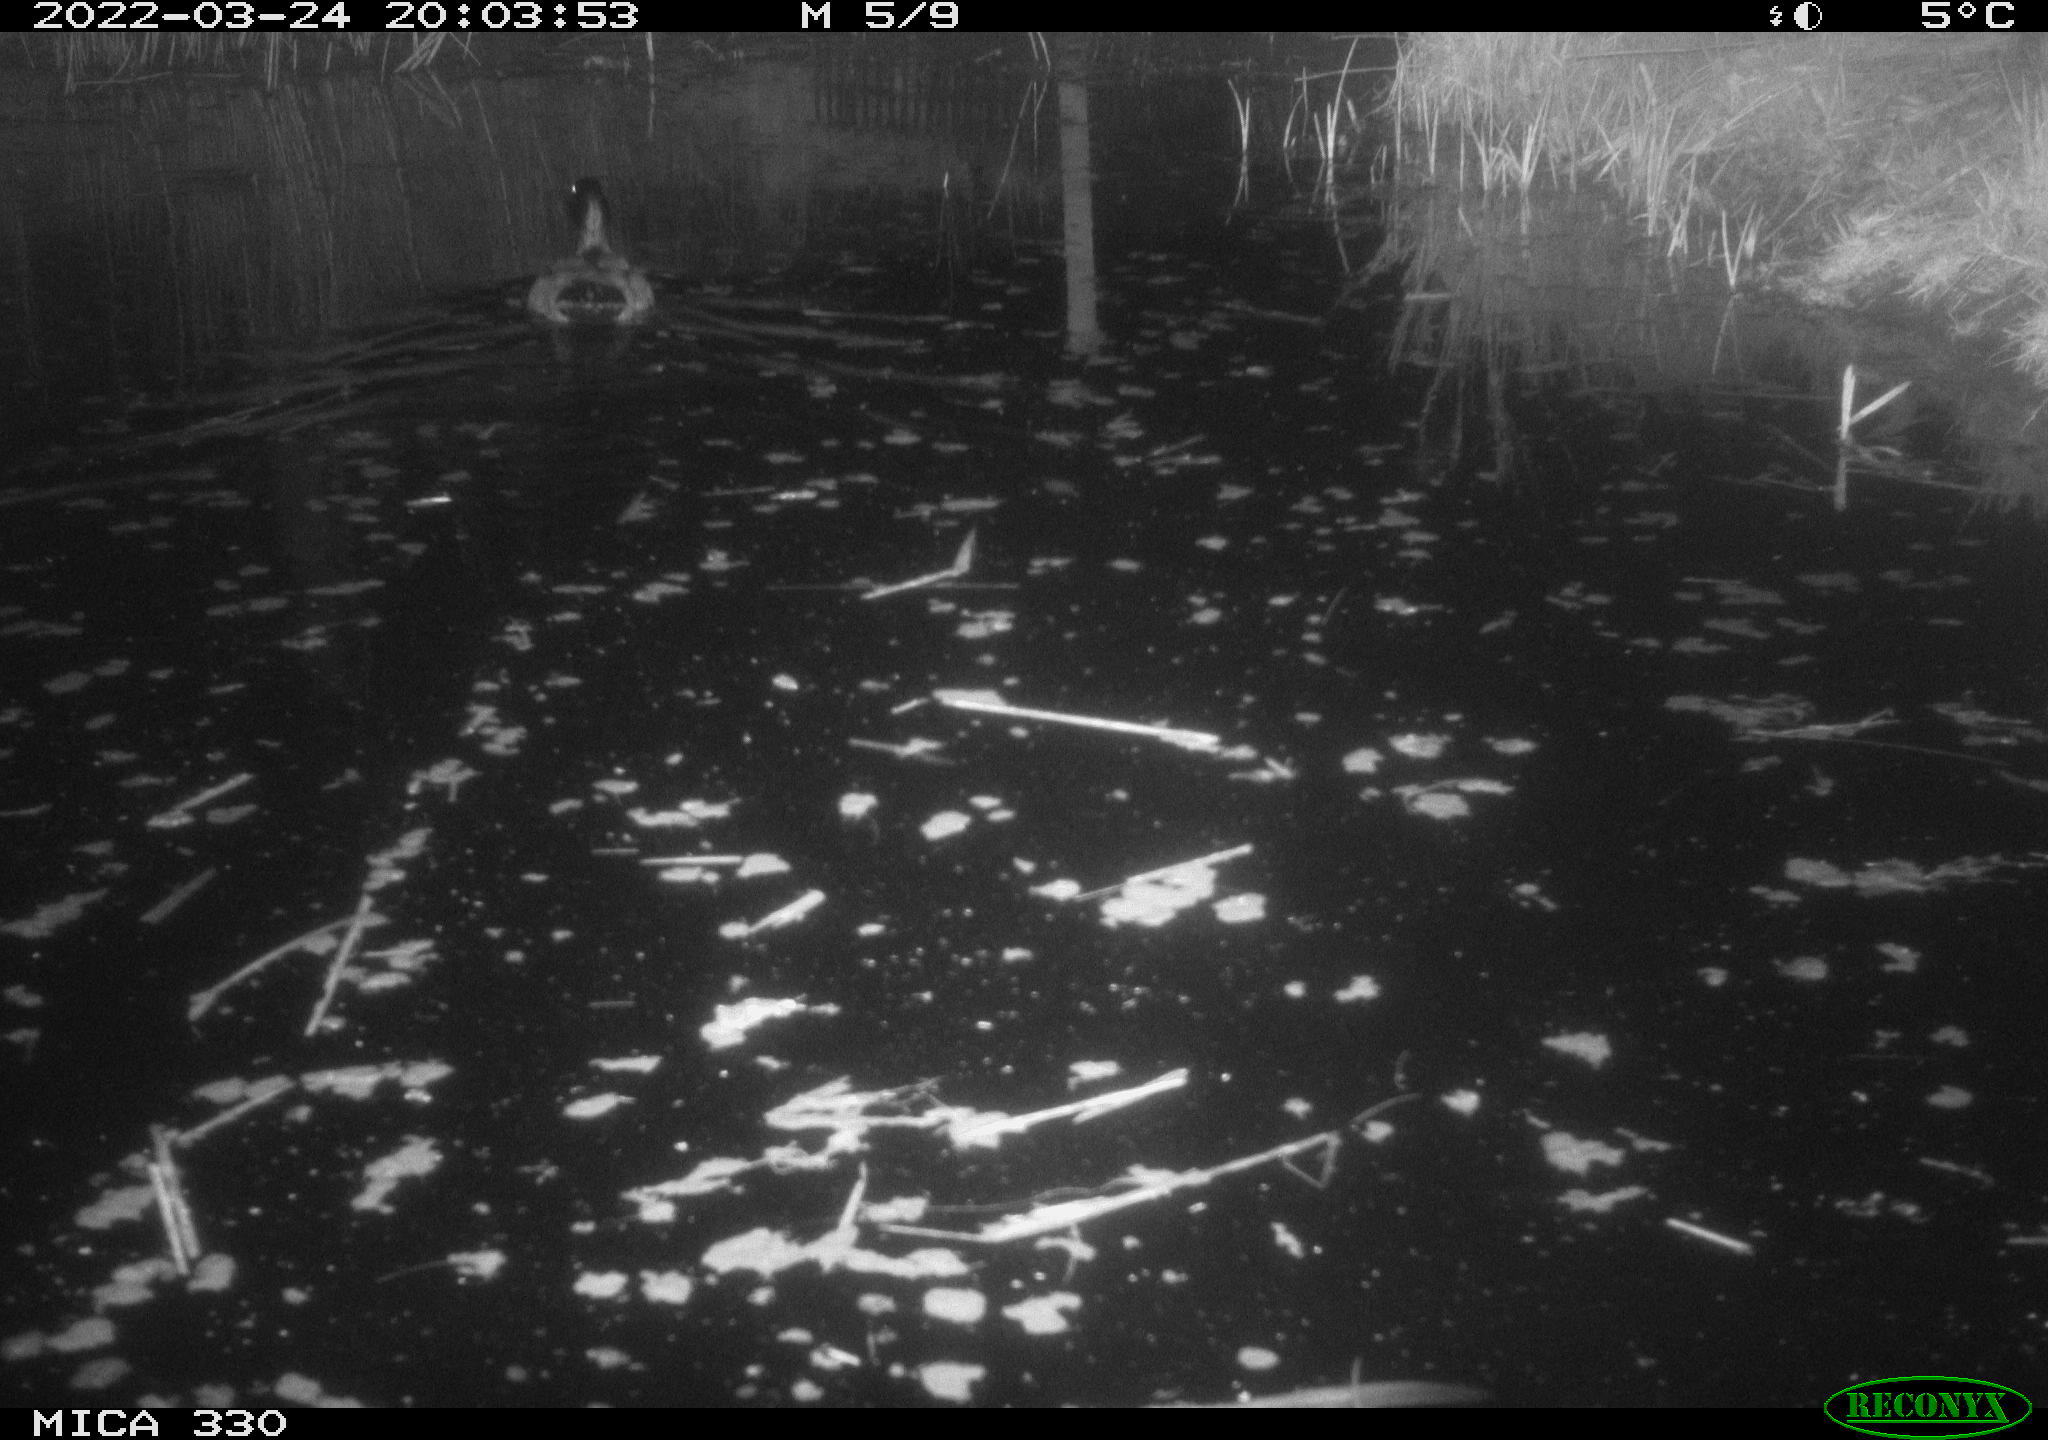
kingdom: Animalia
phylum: Chordata
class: Aves
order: Anseriformes
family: Anatidae
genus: Anas
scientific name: Anas platyrhynchos
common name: Mallard
